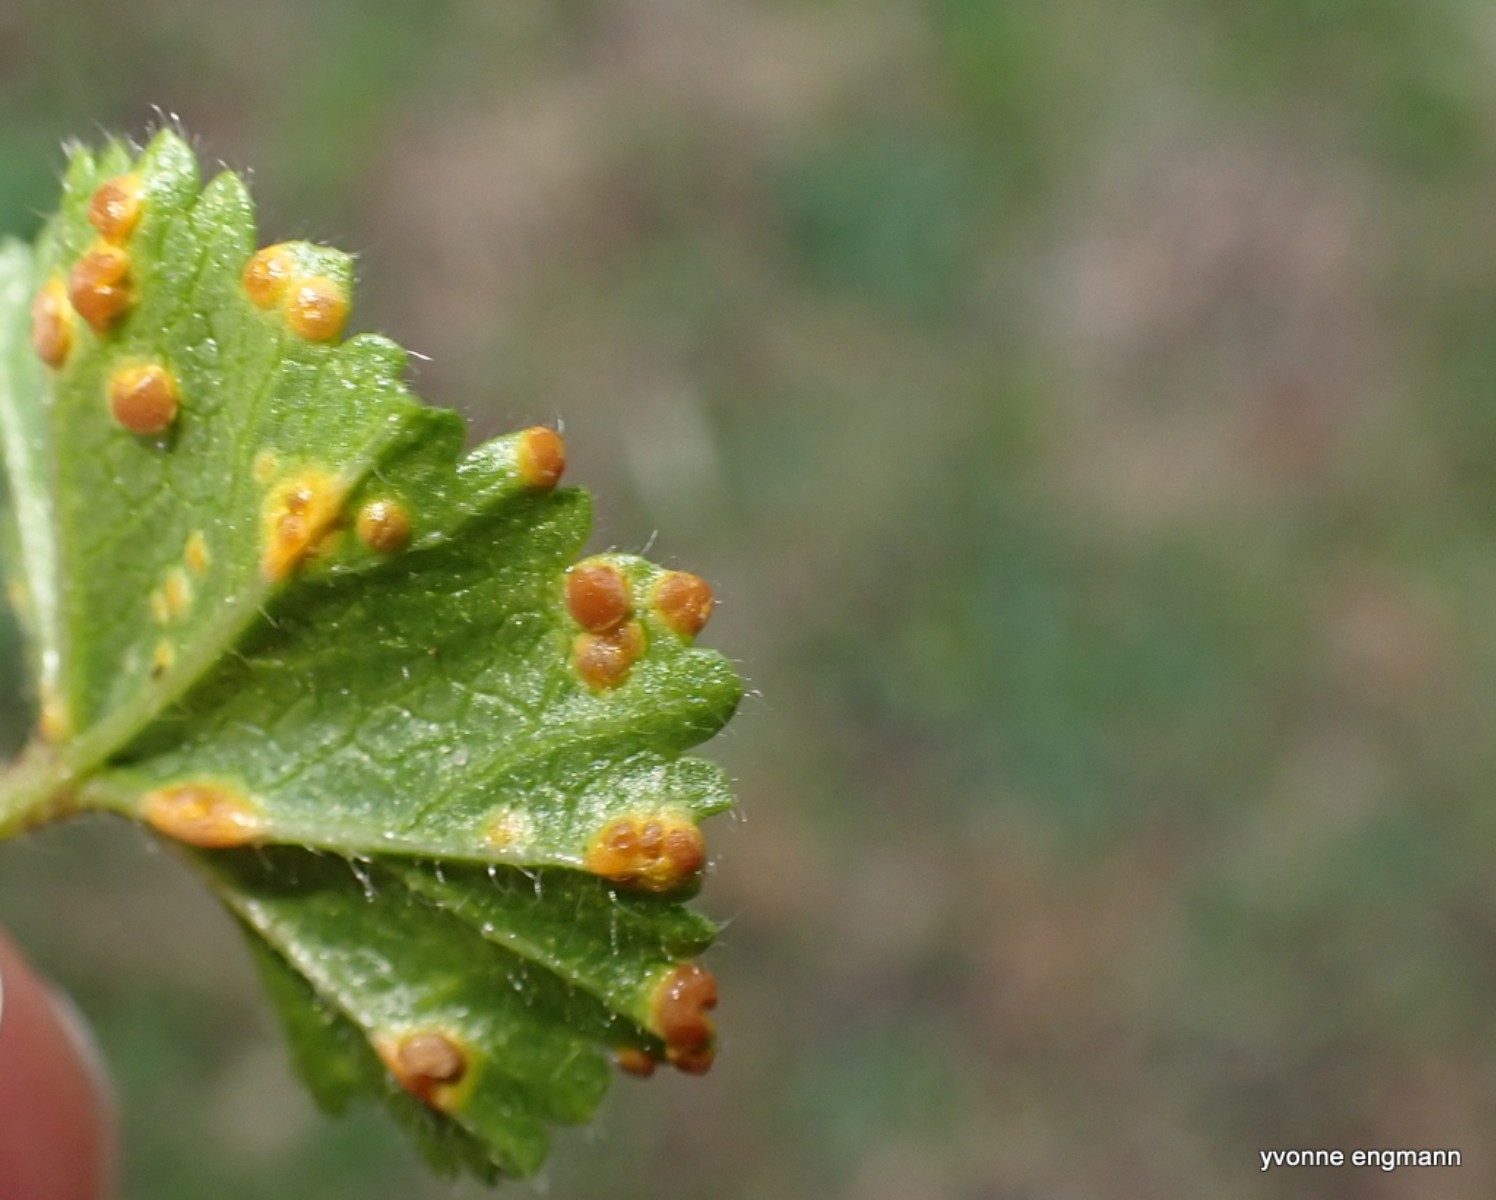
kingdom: Fungi
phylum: Basidiomycota
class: Pucciniomycetes
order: Pucciniales
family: Pucciniaceae
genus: Puccinia
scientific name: Puccinia malvacearum
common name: stokrose-tvecellerust
